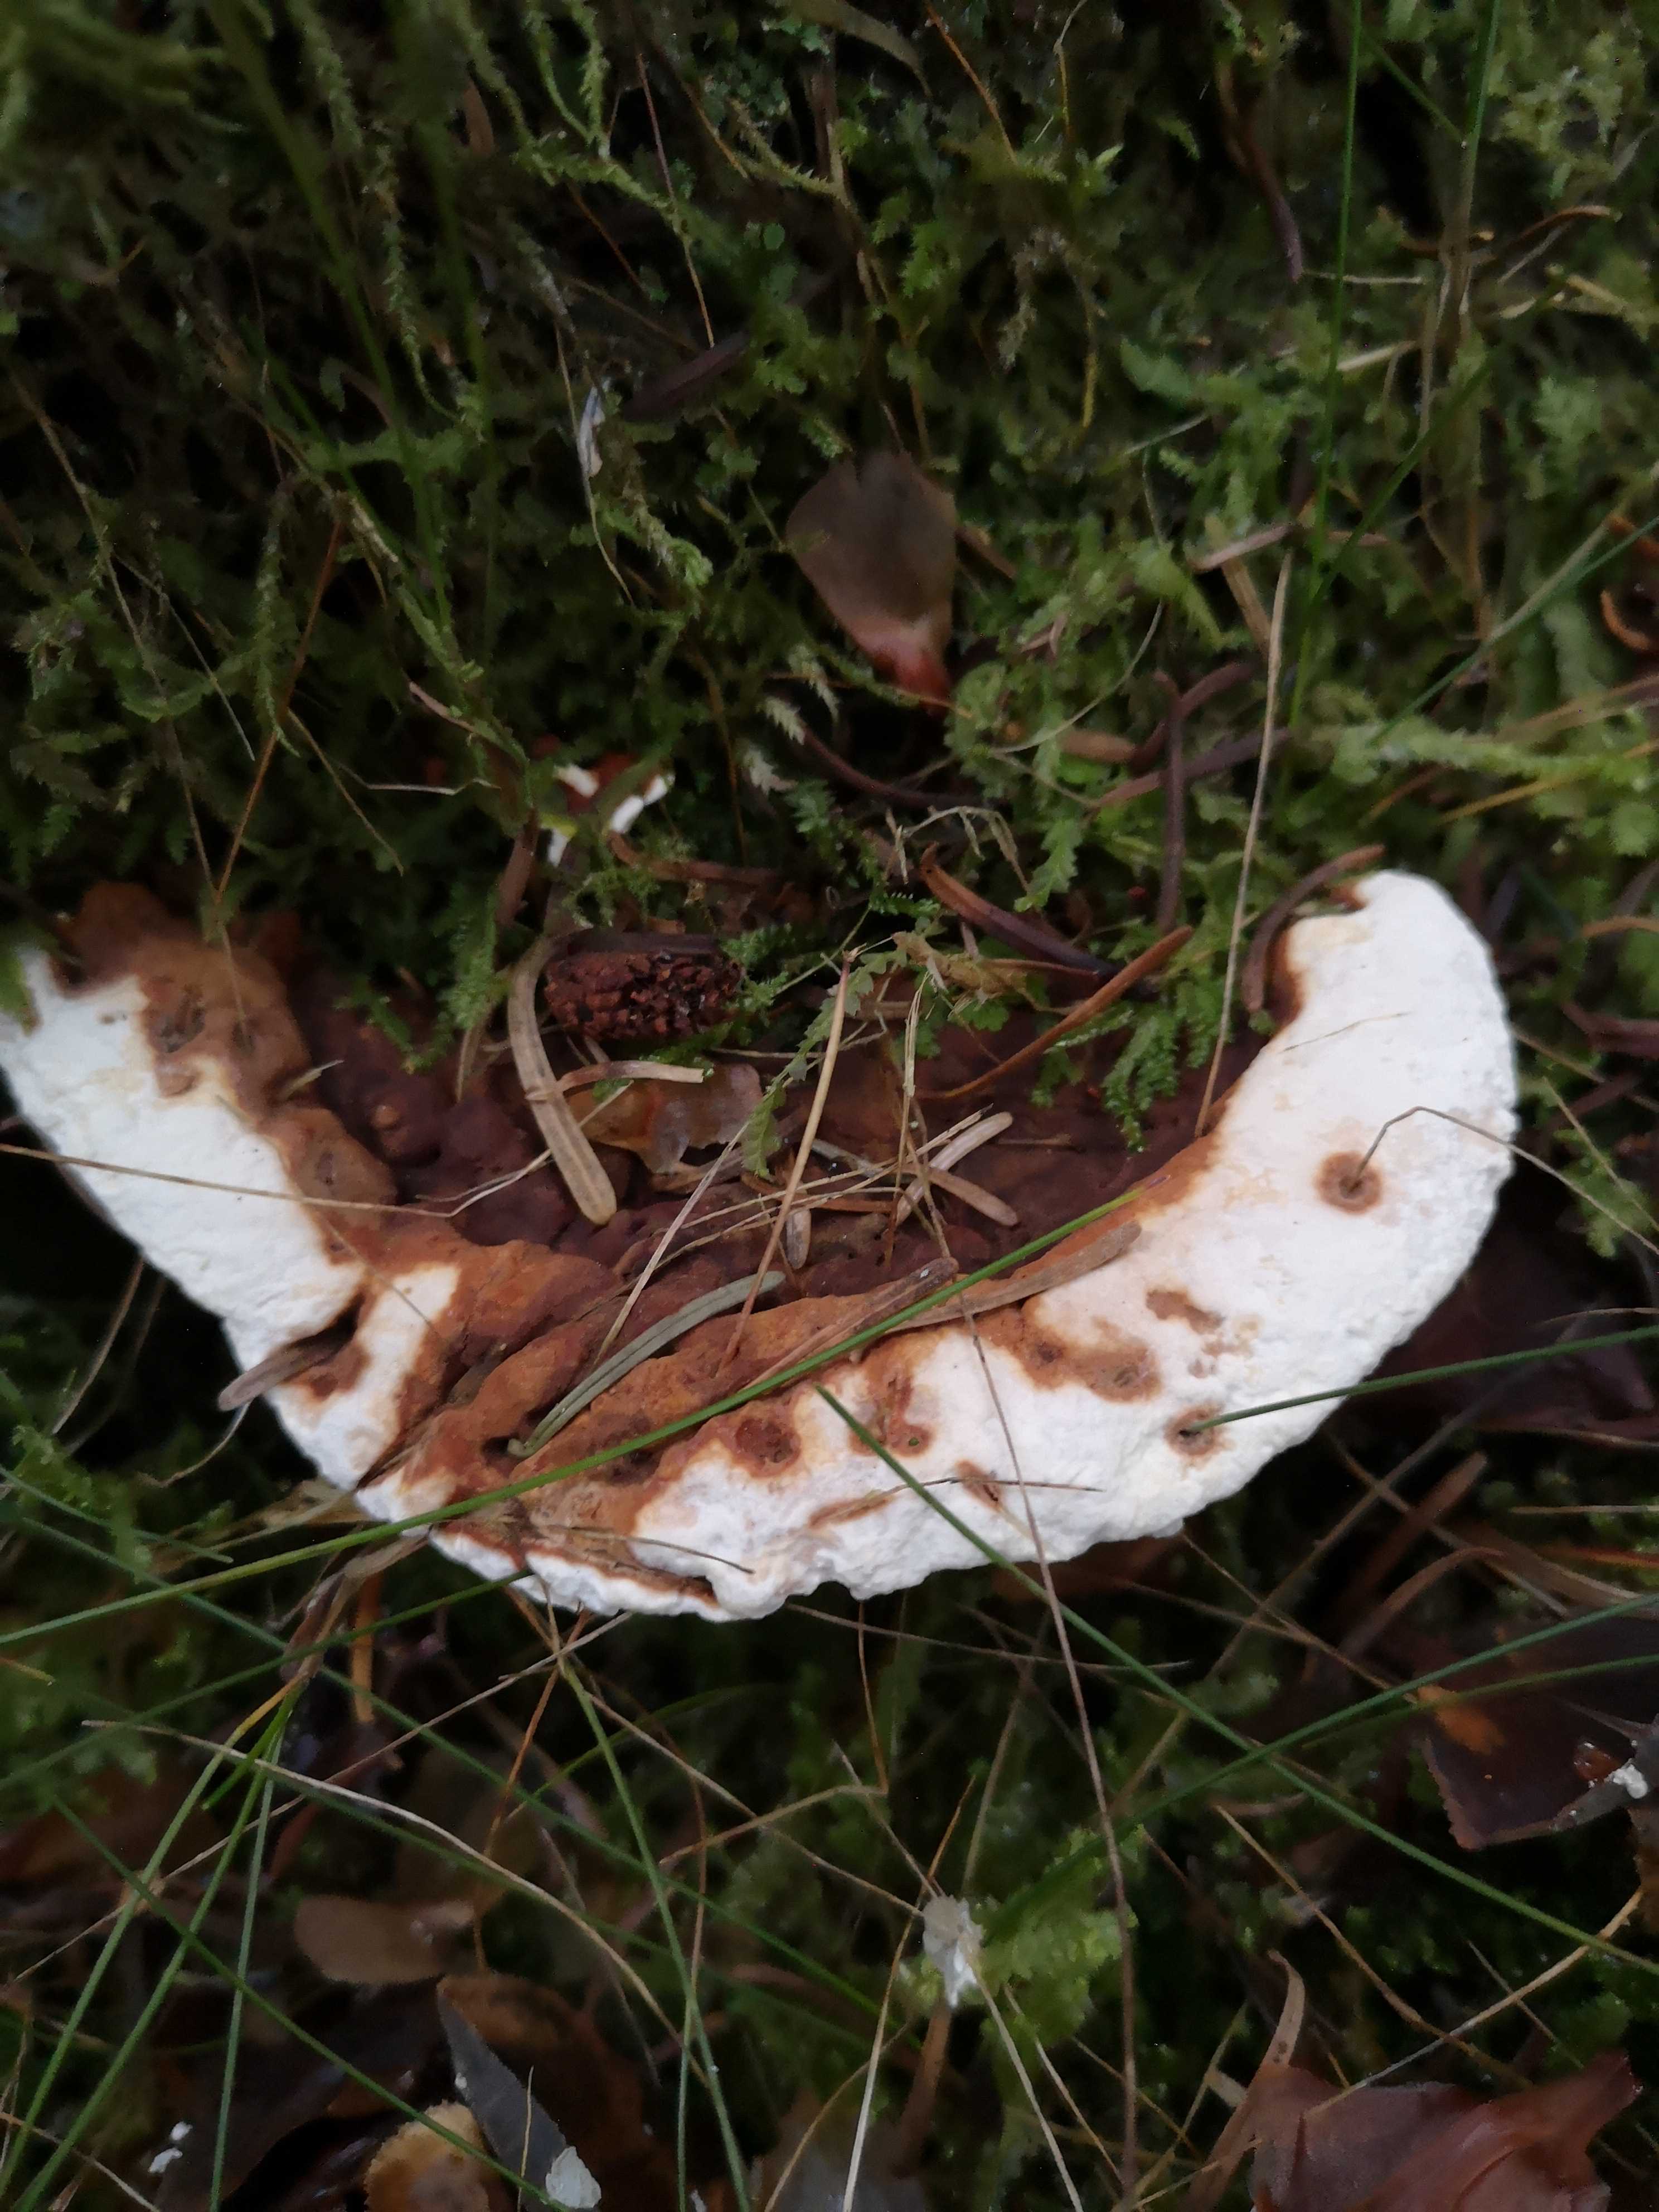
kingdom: Fungi
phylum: Basidiomycota
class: Agaricomycetes
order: Russulales
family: Bondarzewiaceae
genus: Heterobasidion
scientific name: Heterobasidion annosum
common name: almindelig rodfordærver
